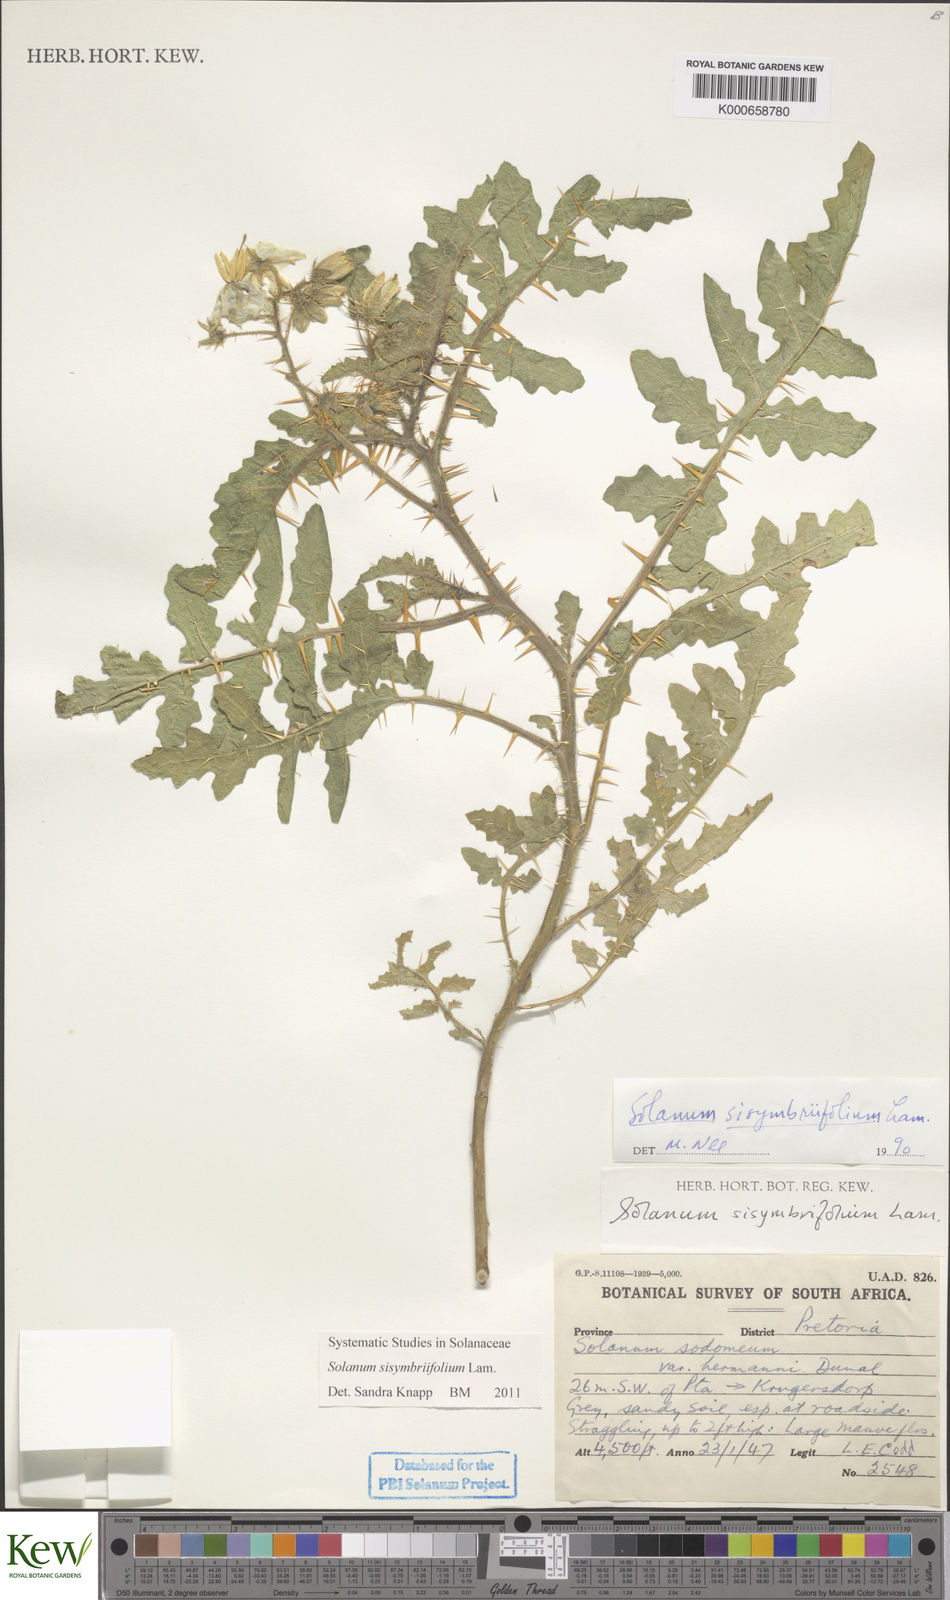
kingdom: Plantae
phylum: Tracheophyta
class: Magnoliopsida
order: Solanales
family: Solanaceae
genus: Solanum
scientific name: Solanum sisymbriifolium
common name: Red buffalo-bur
